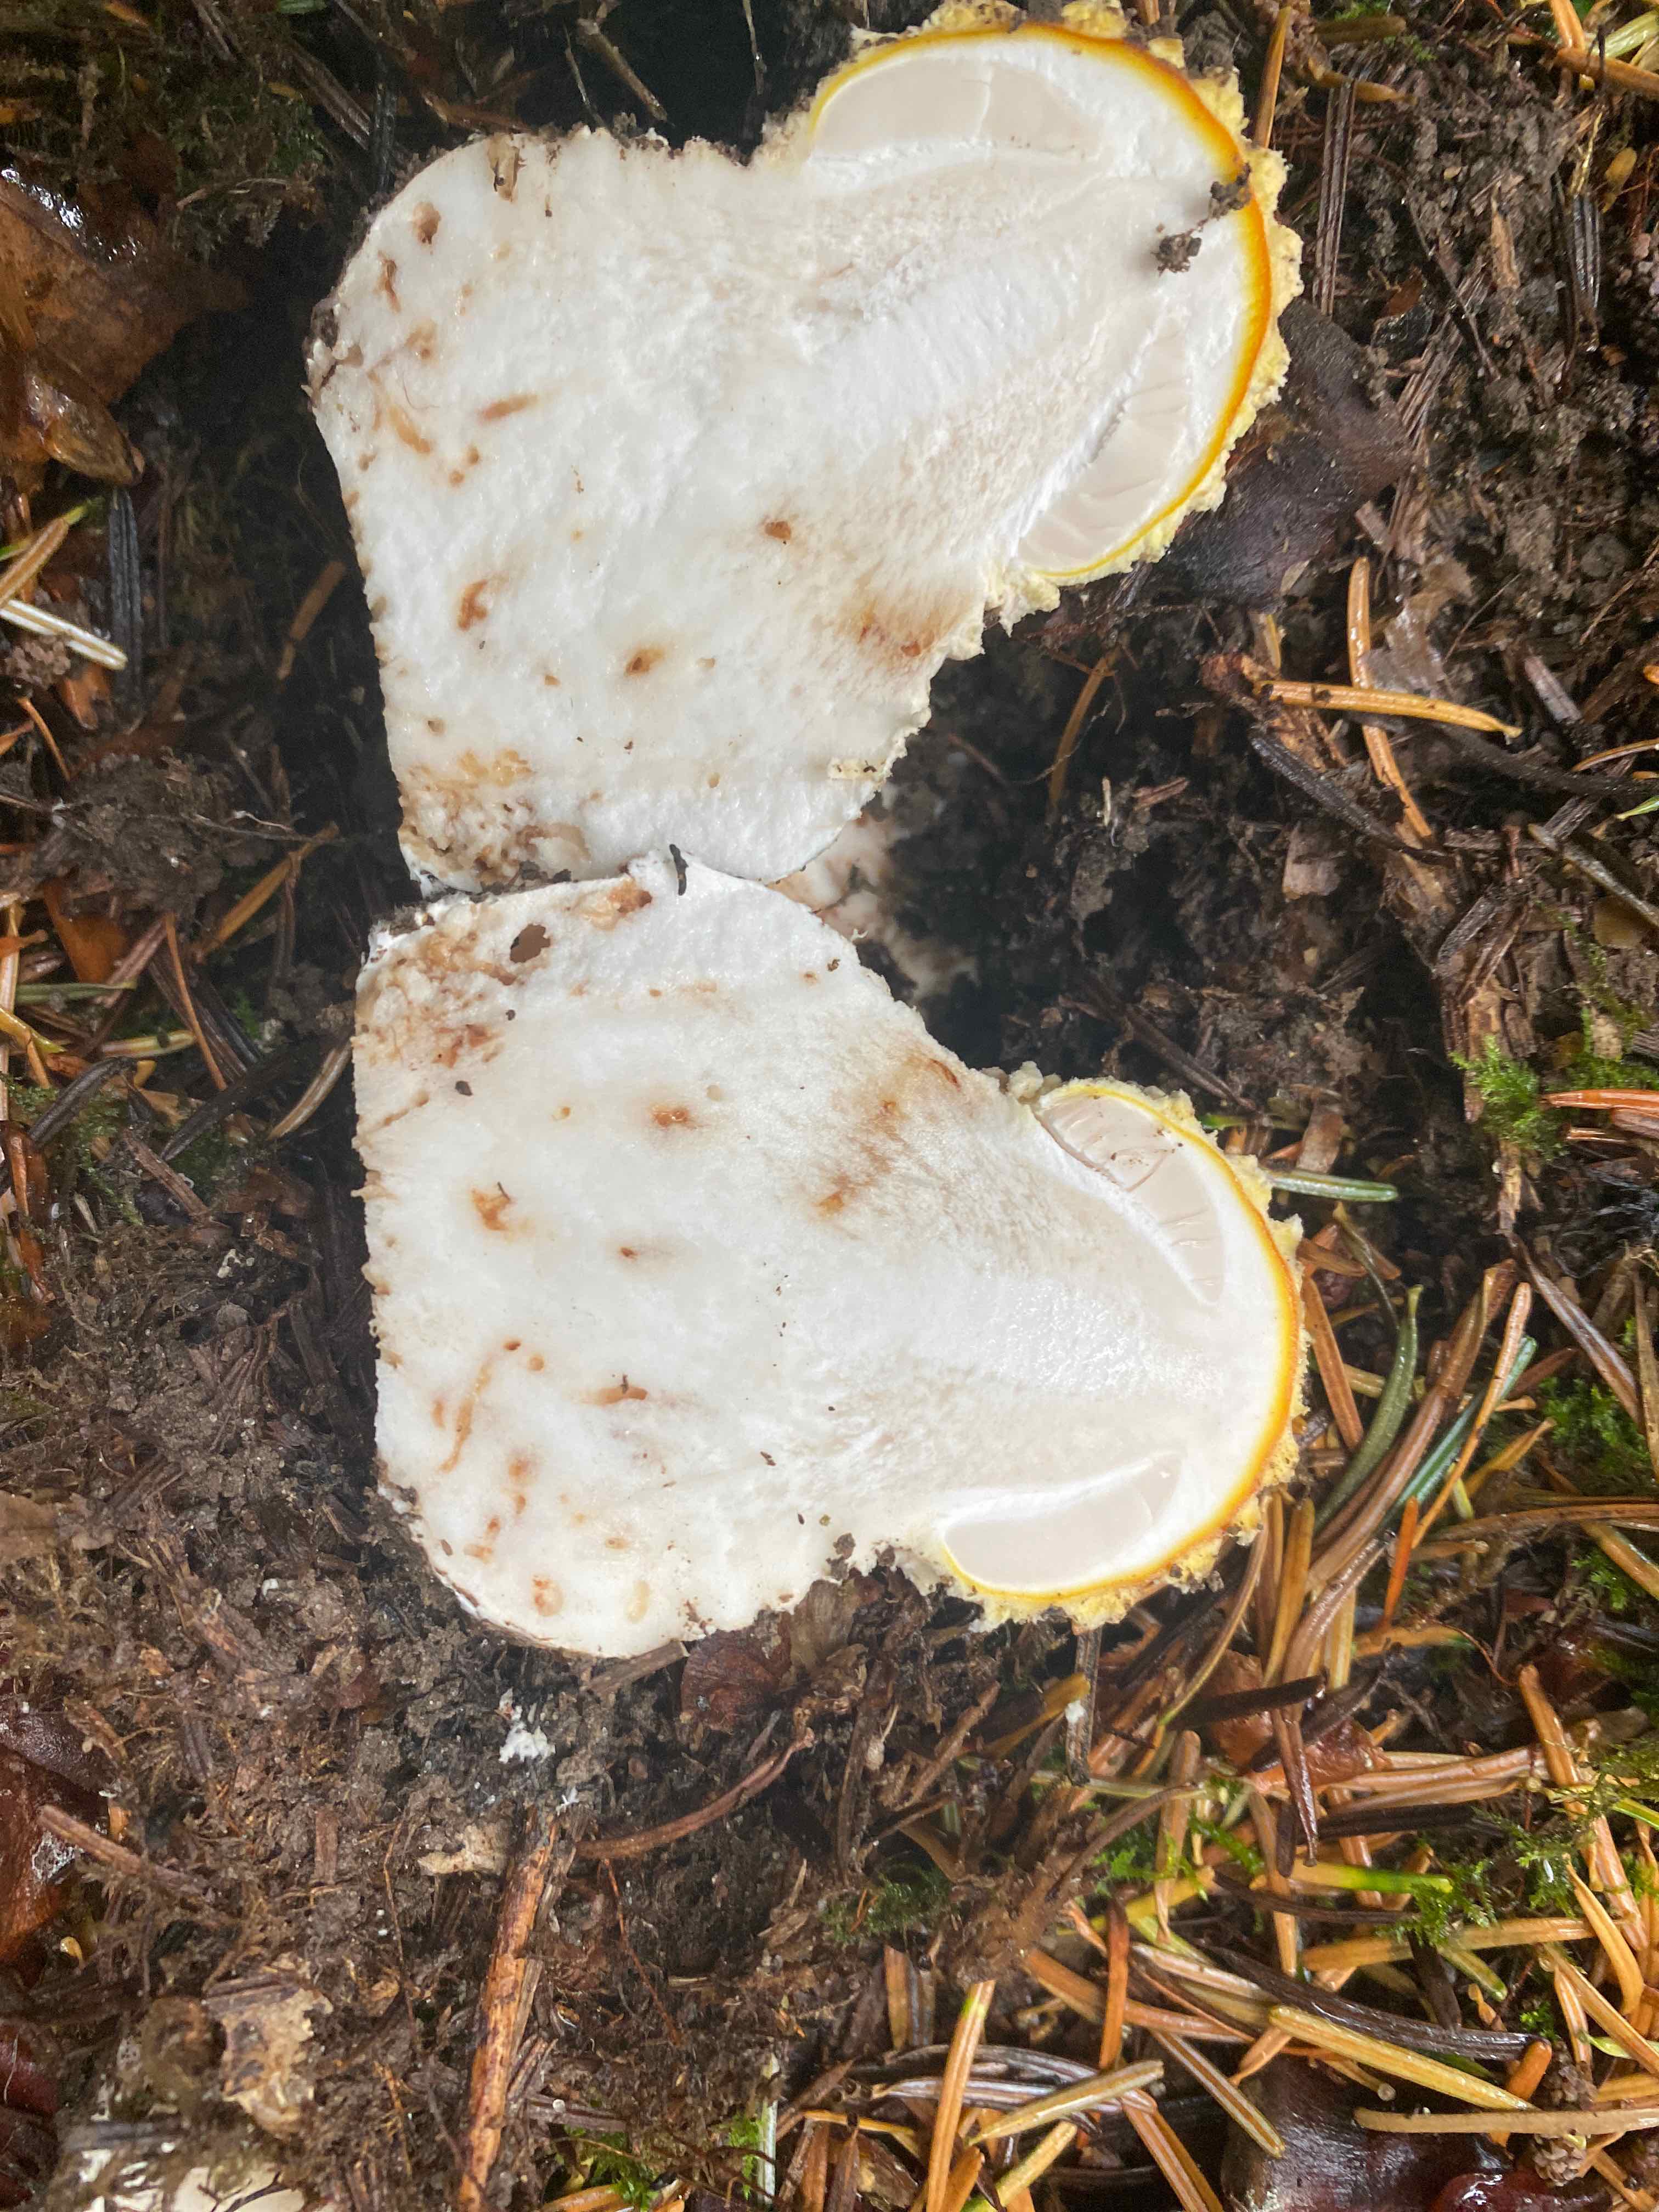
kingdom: Fungi
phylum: Basidiomycota
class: Agaricomycetes
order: Agaricales
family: Amanitaceae
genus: Amanita
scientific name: Amanita muscaria
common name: rød fluesvamp
